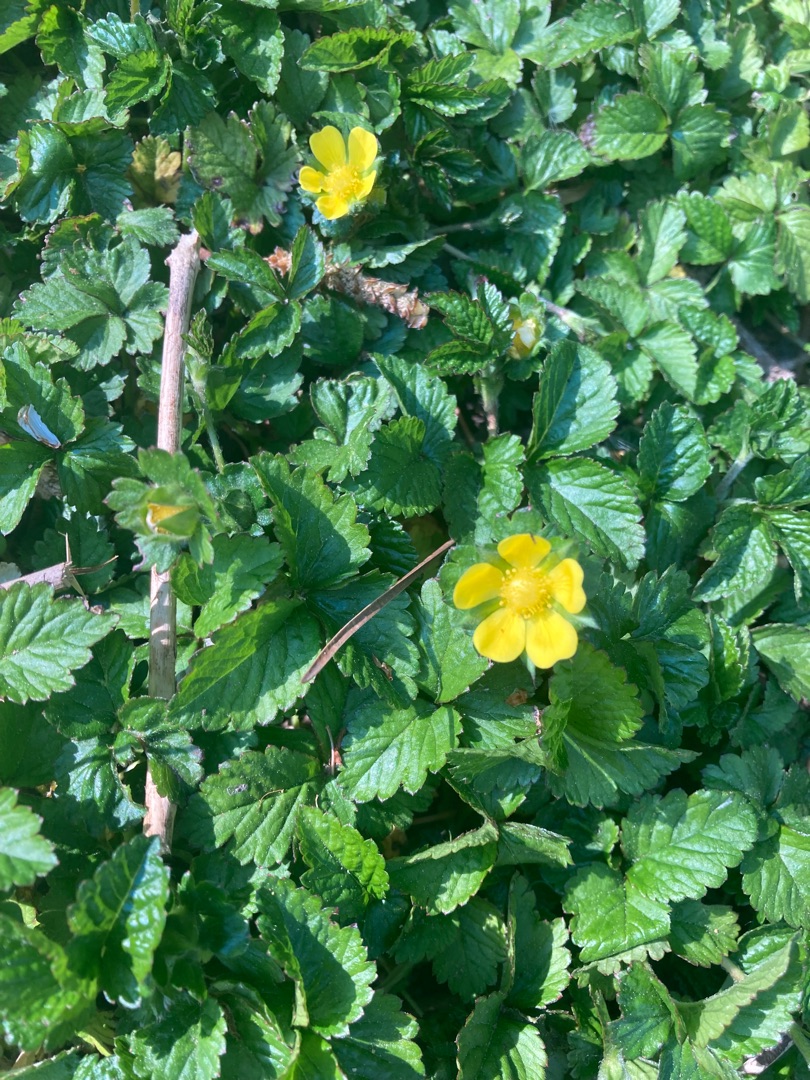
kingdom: Plantae
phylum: Tracheophyta
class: Magnoliopsida
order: Rosales
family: Rosaceae
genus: Potentilla
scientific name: Potentilla indica
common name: Indisk jordbær
